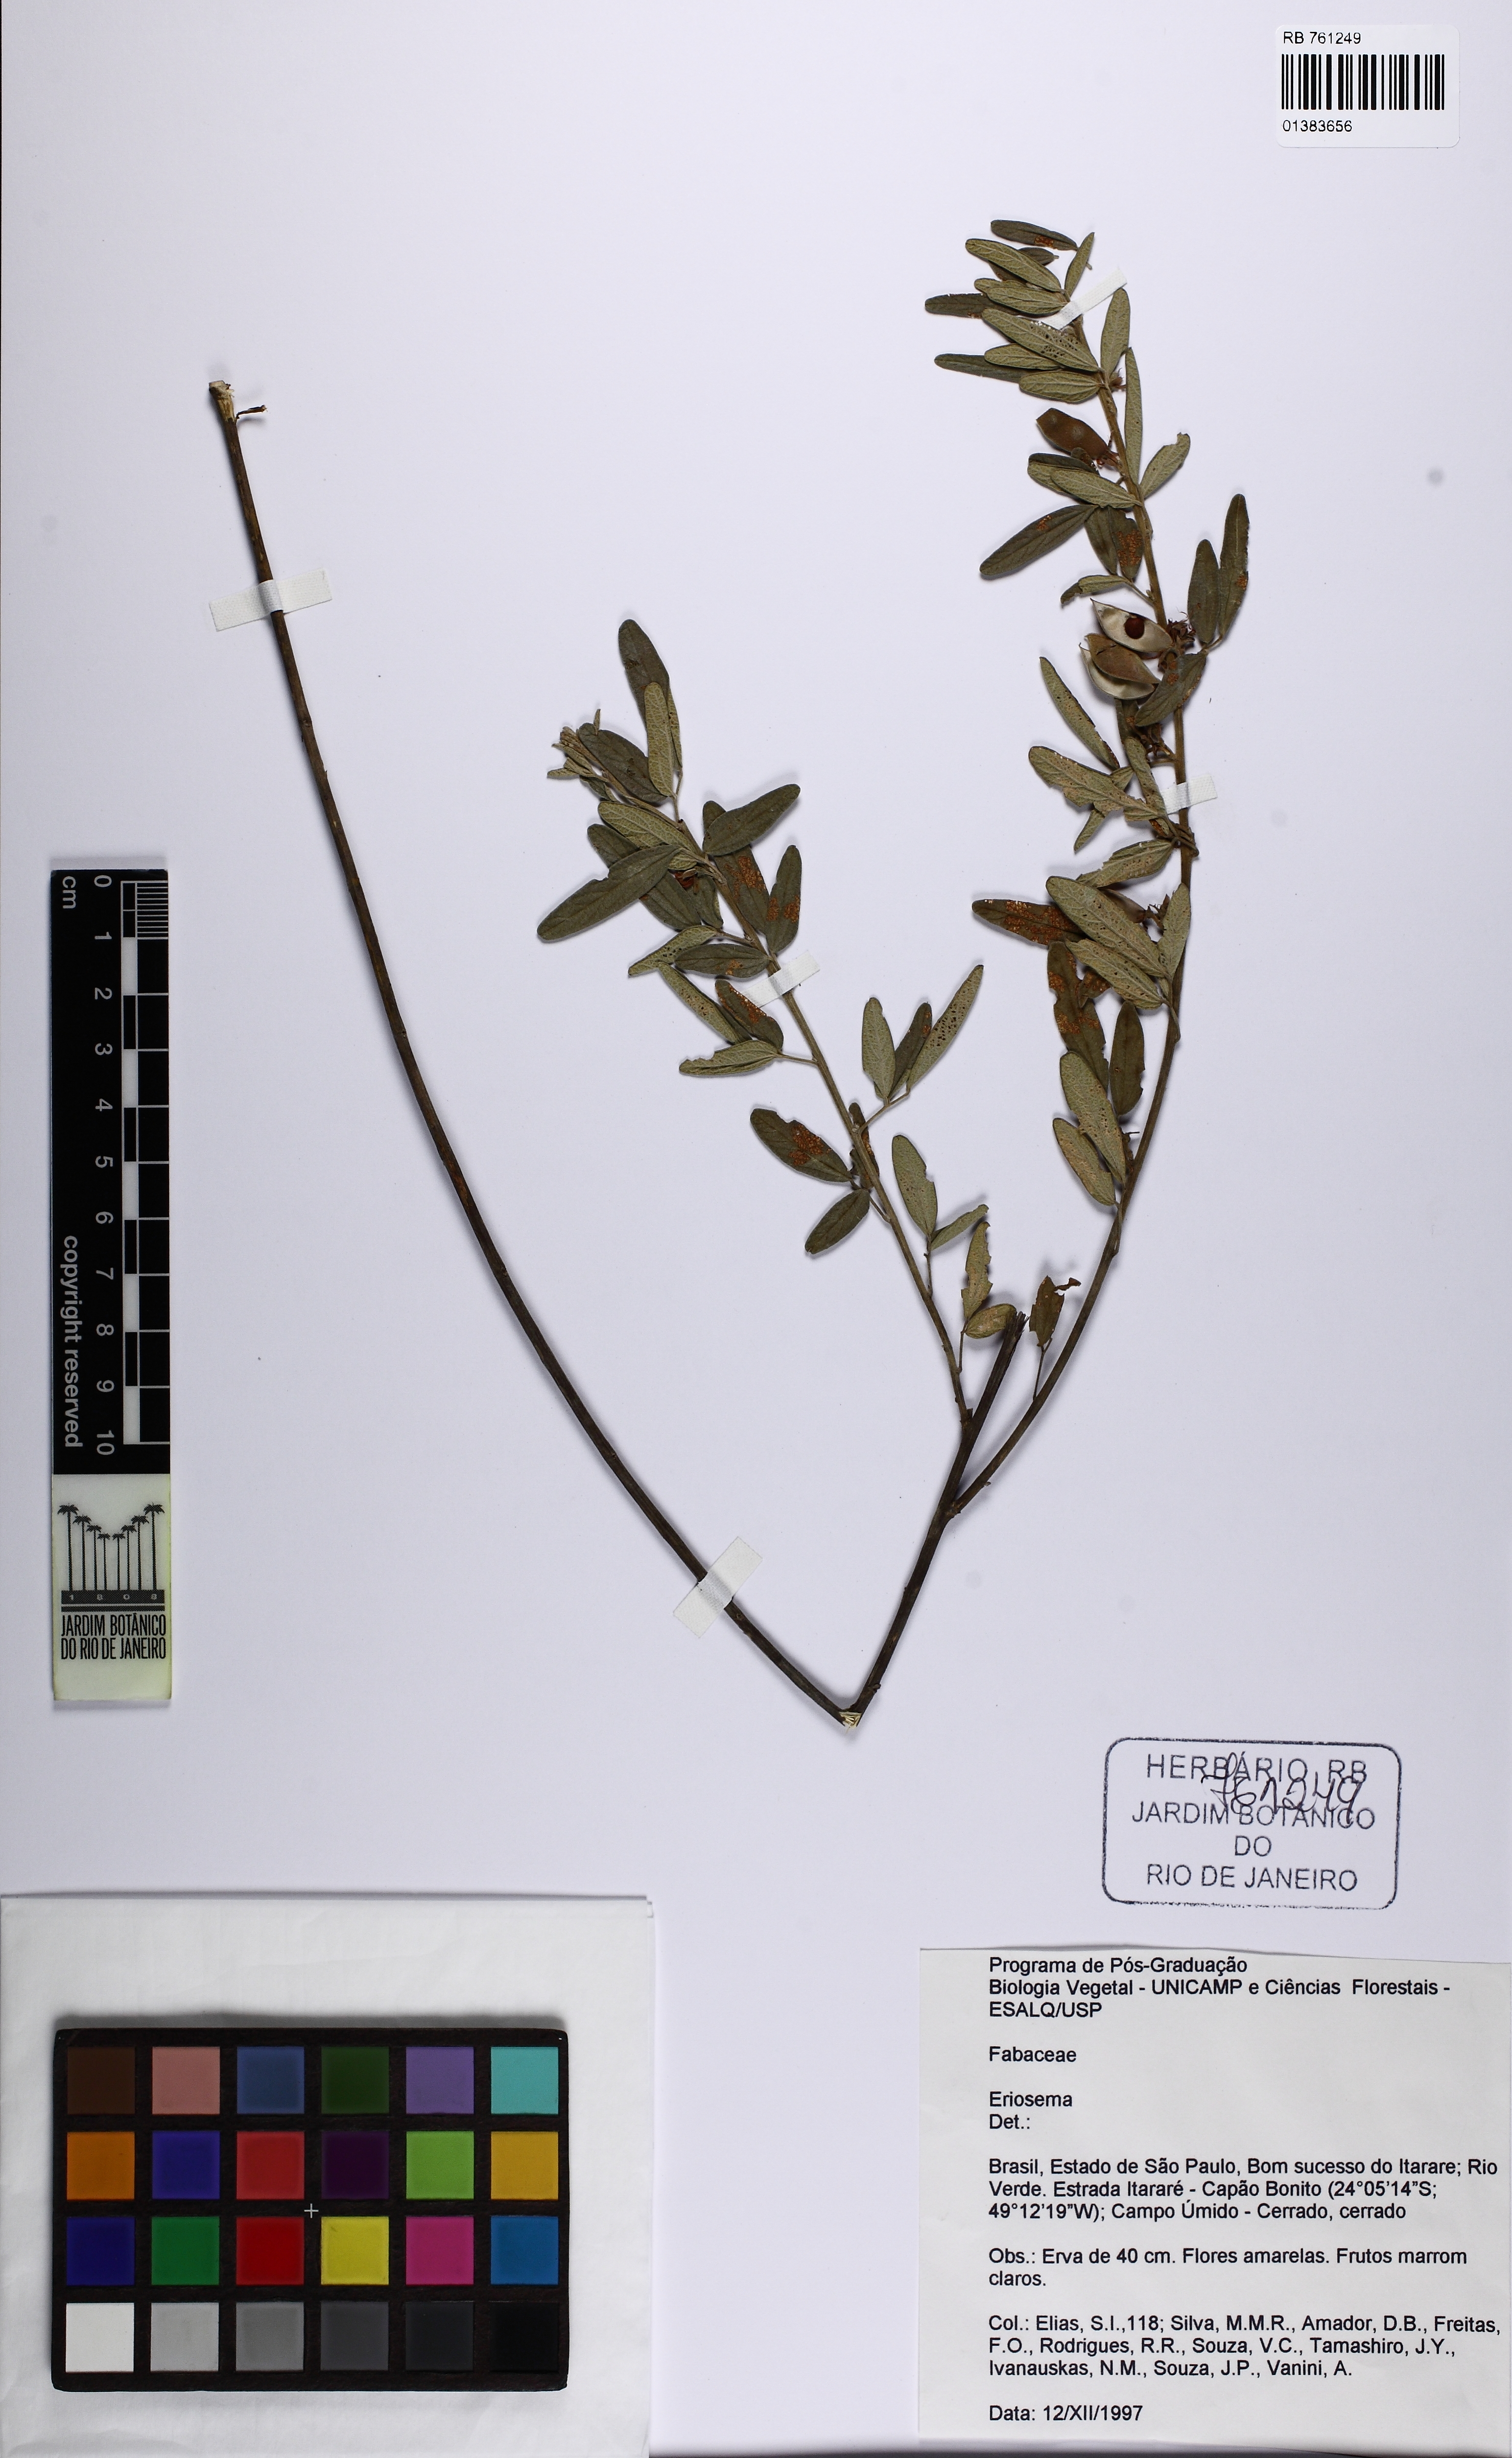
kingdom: Plantae
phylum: Tracheophyta
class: Magnoliopsida
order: Fabales
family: Fabaceae
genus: Eriosema
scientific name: Eriosema
